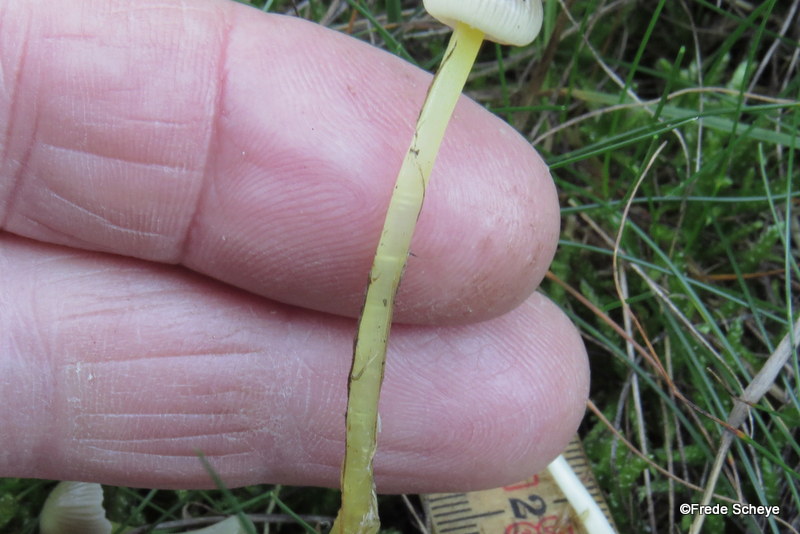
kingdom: Fungi
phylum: Basidiomycota
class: Agaricomycetes
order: Agaricales
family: Mycenaceae
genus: Mycena
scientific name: Mycena epipterygia
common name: gulstokket huesvamp
